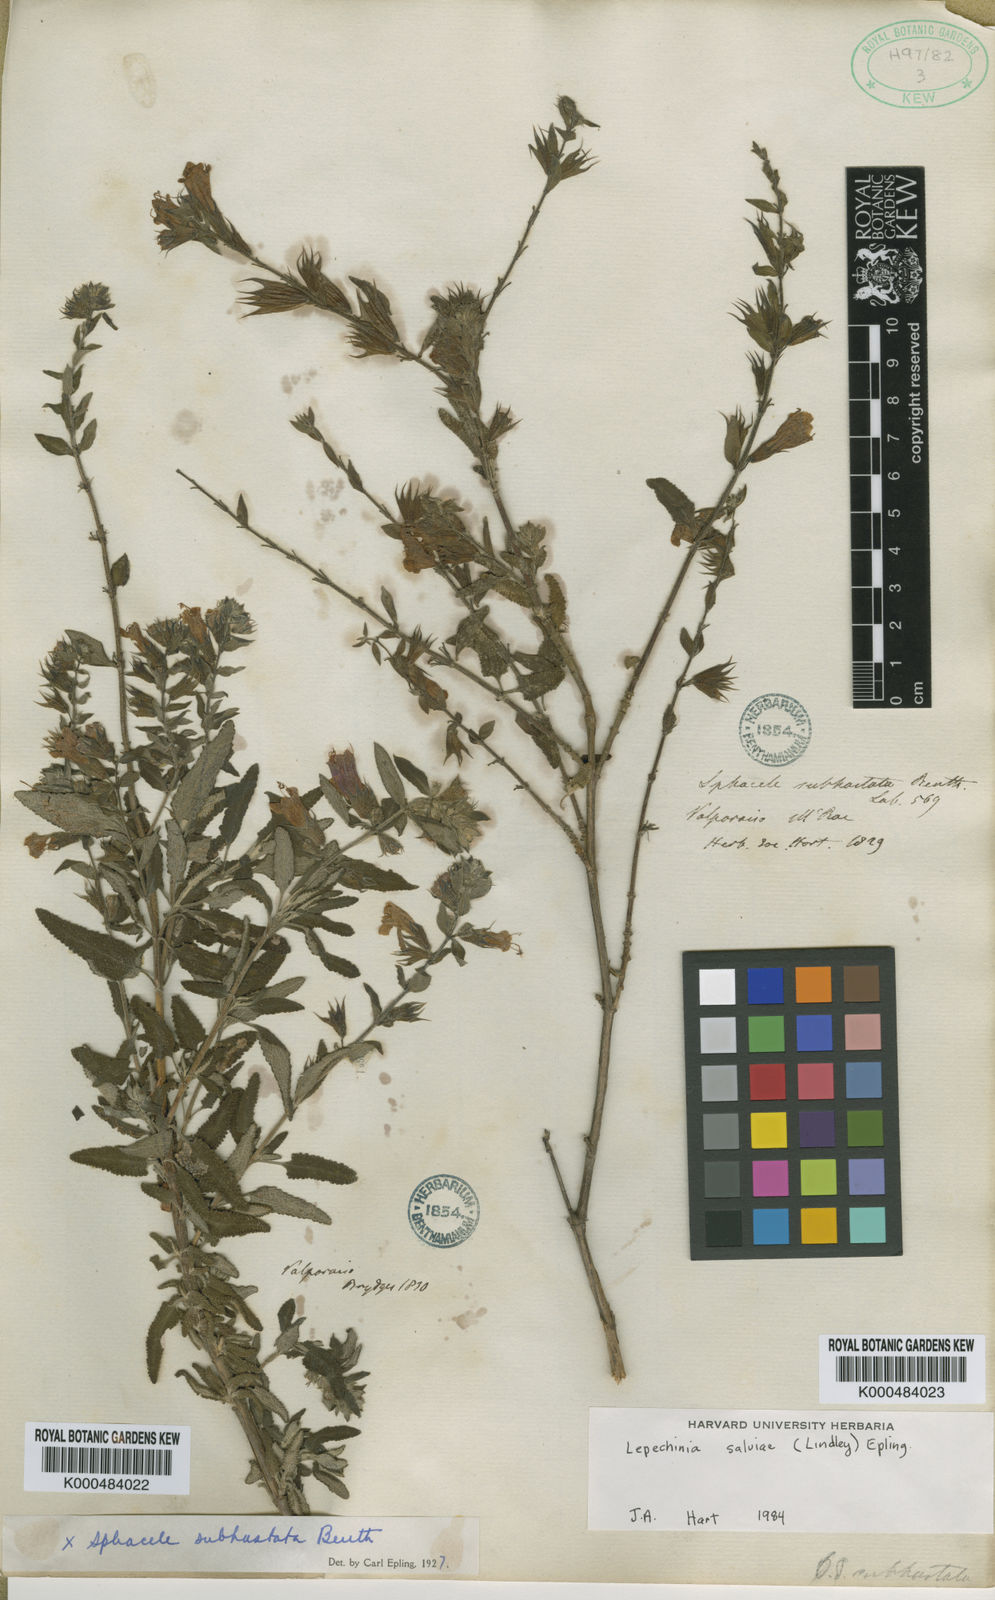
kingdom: Plantae
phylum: Tracheophyta
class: Magnoliopsida
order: Lamiales
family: Lamiaceae
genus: Lepechinia
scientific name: Lepechinia salviae
